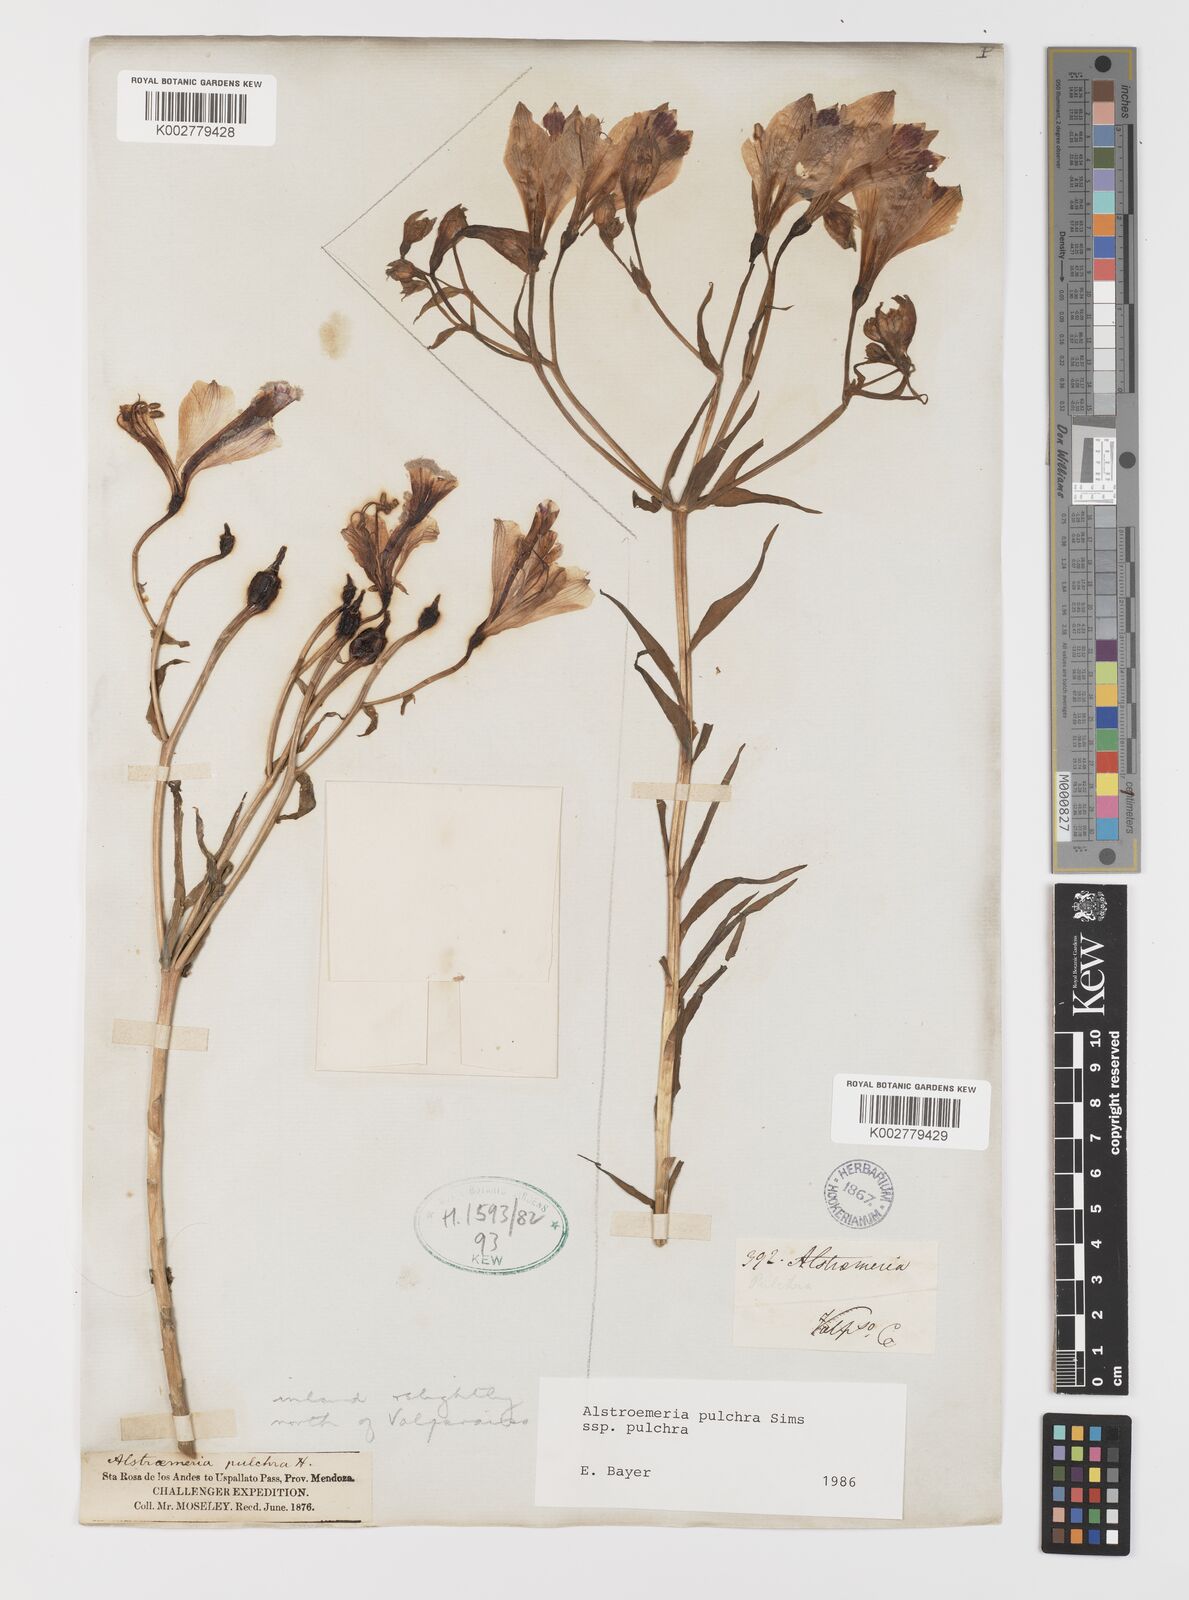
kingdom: Plantae
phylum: Tracheophyta
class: Liliopsida
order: Liliales
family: Alstroemeriaceae
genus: Alstroemeria
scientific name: Alstroemeria pulchra
